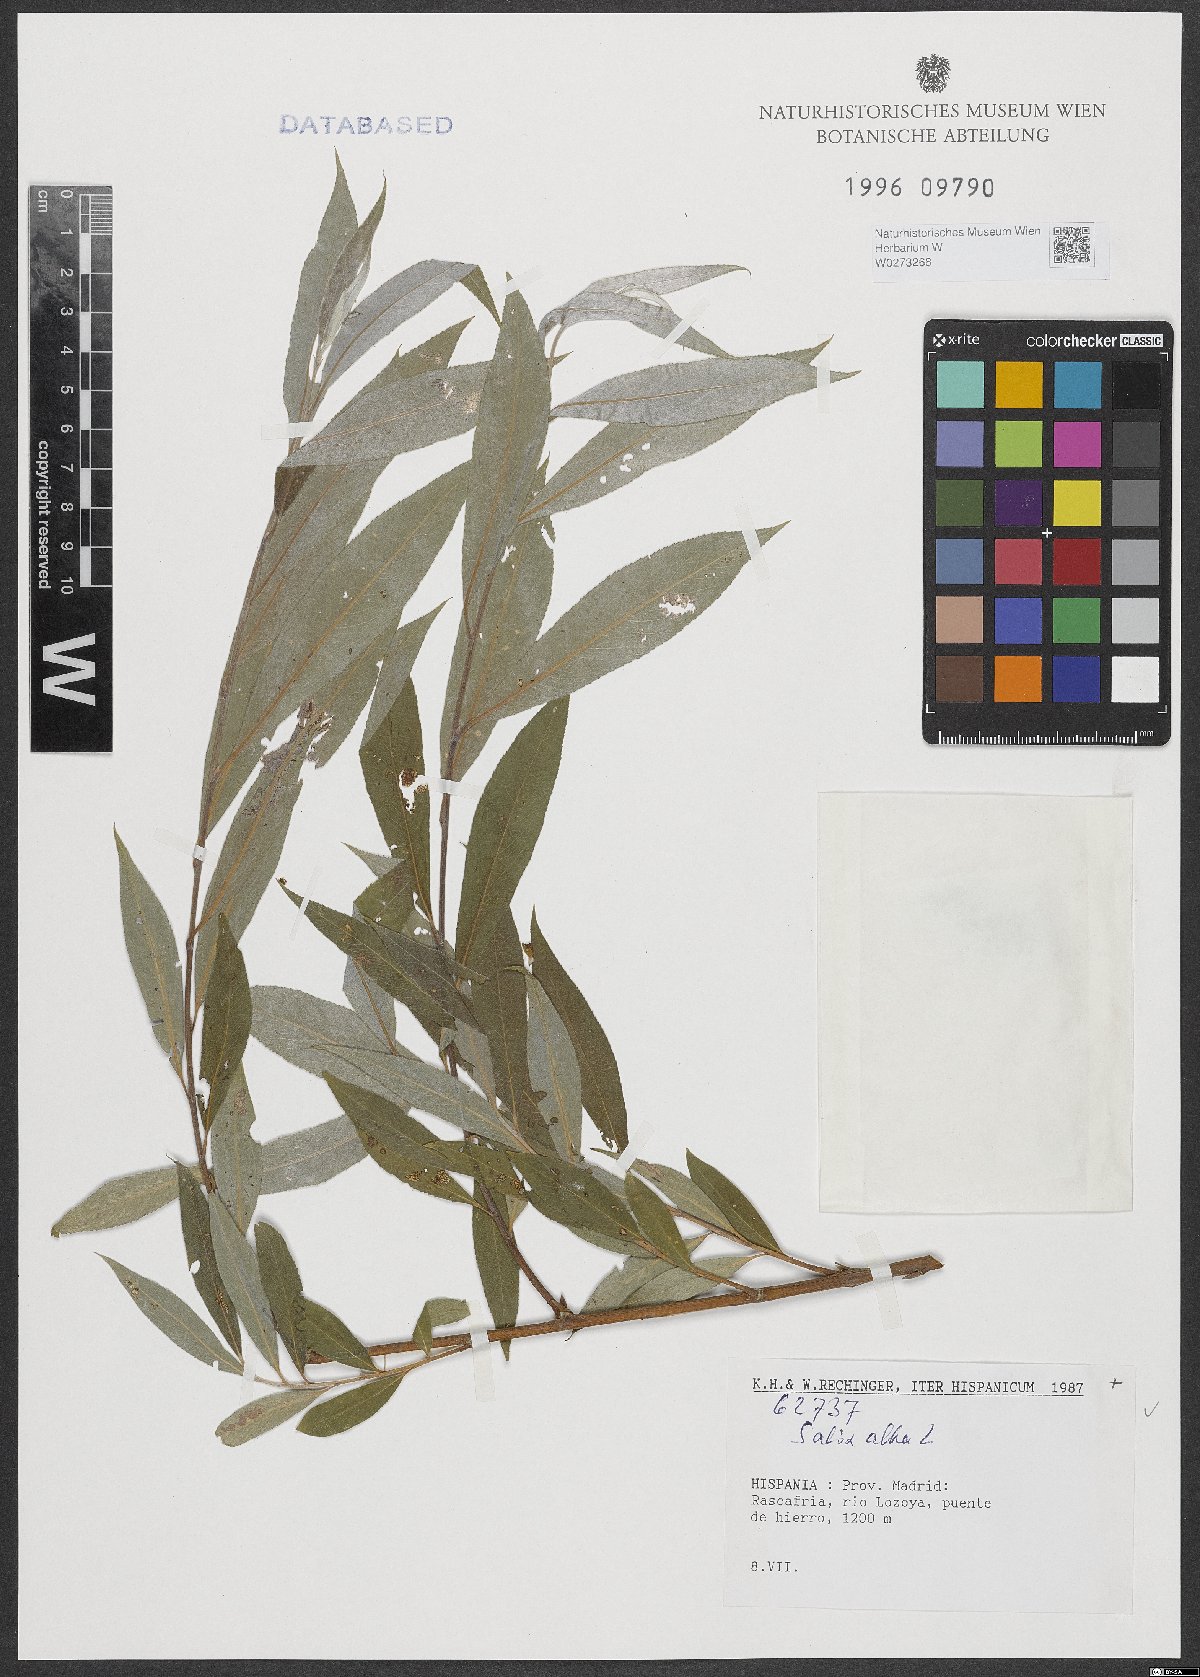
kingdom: Plantae
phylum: Tracheophyta
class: Magnoliopsida
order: Malpighiales
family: Salicaceae
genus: Salix
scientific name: Salix alba
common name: White willow
